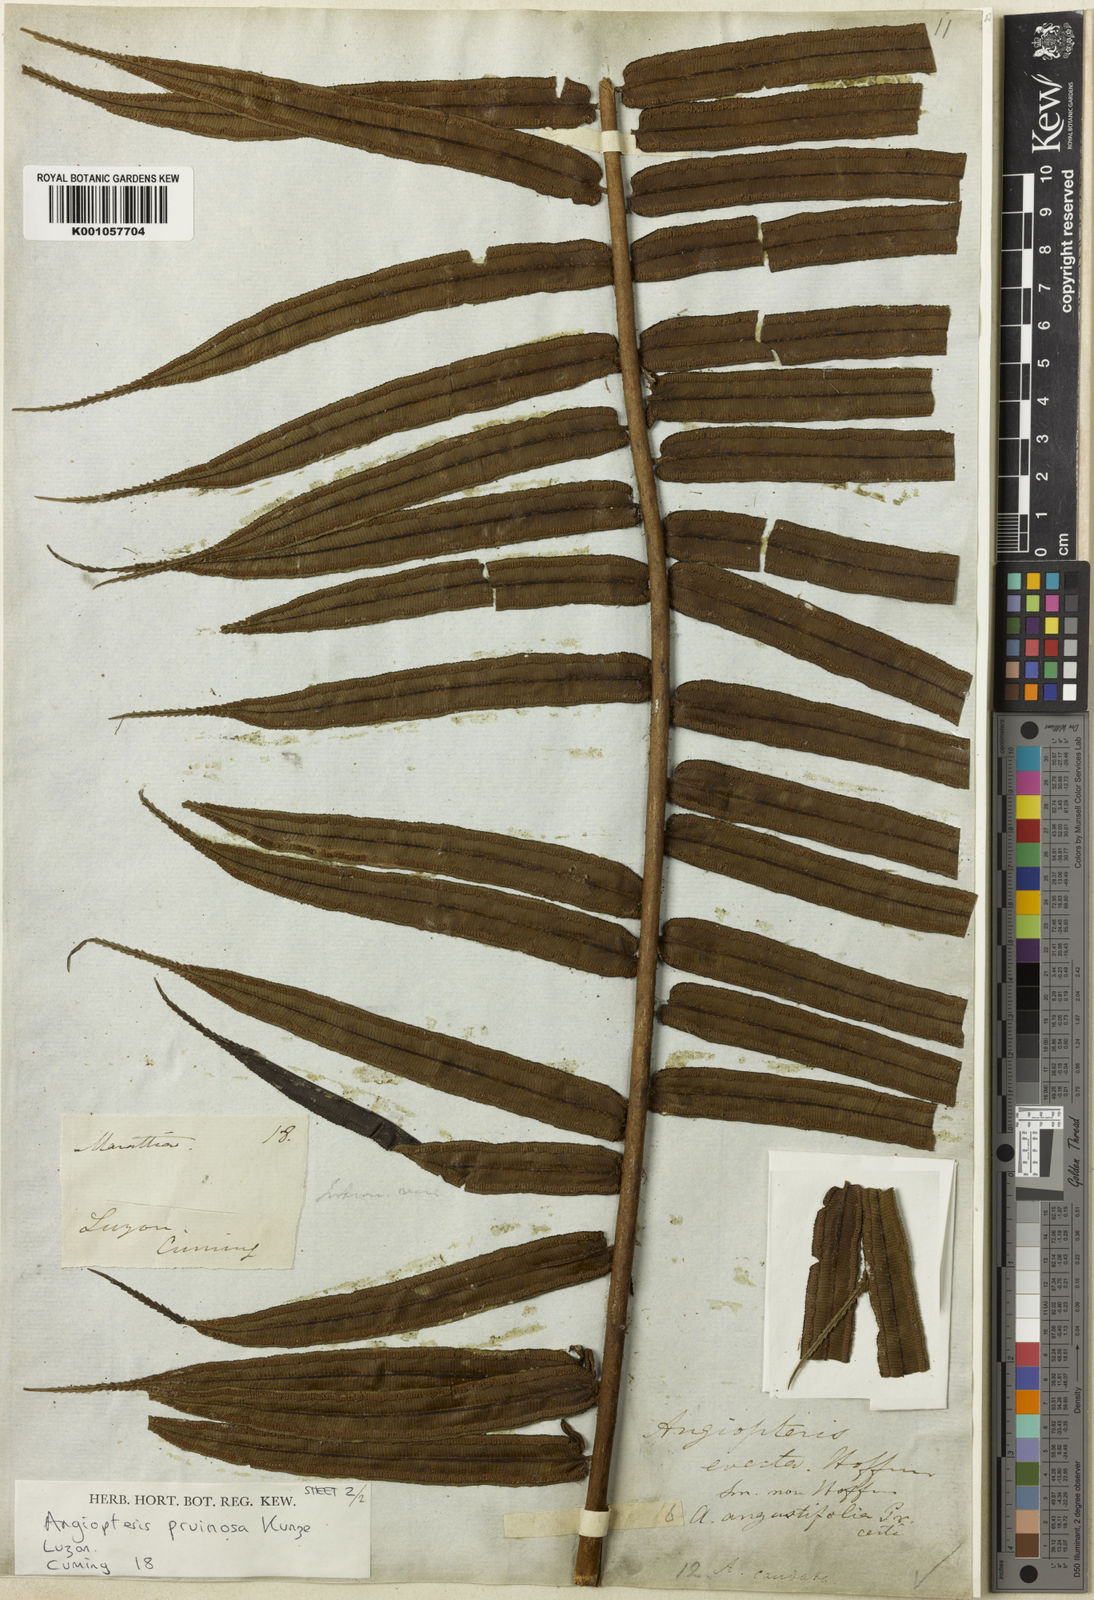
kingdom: Plantae
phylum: Tracheophyta
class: Polypodiopsida
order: Marattiales
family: Marattiaceae
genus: Angiopteris
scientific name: Angiopteris angustifolia
